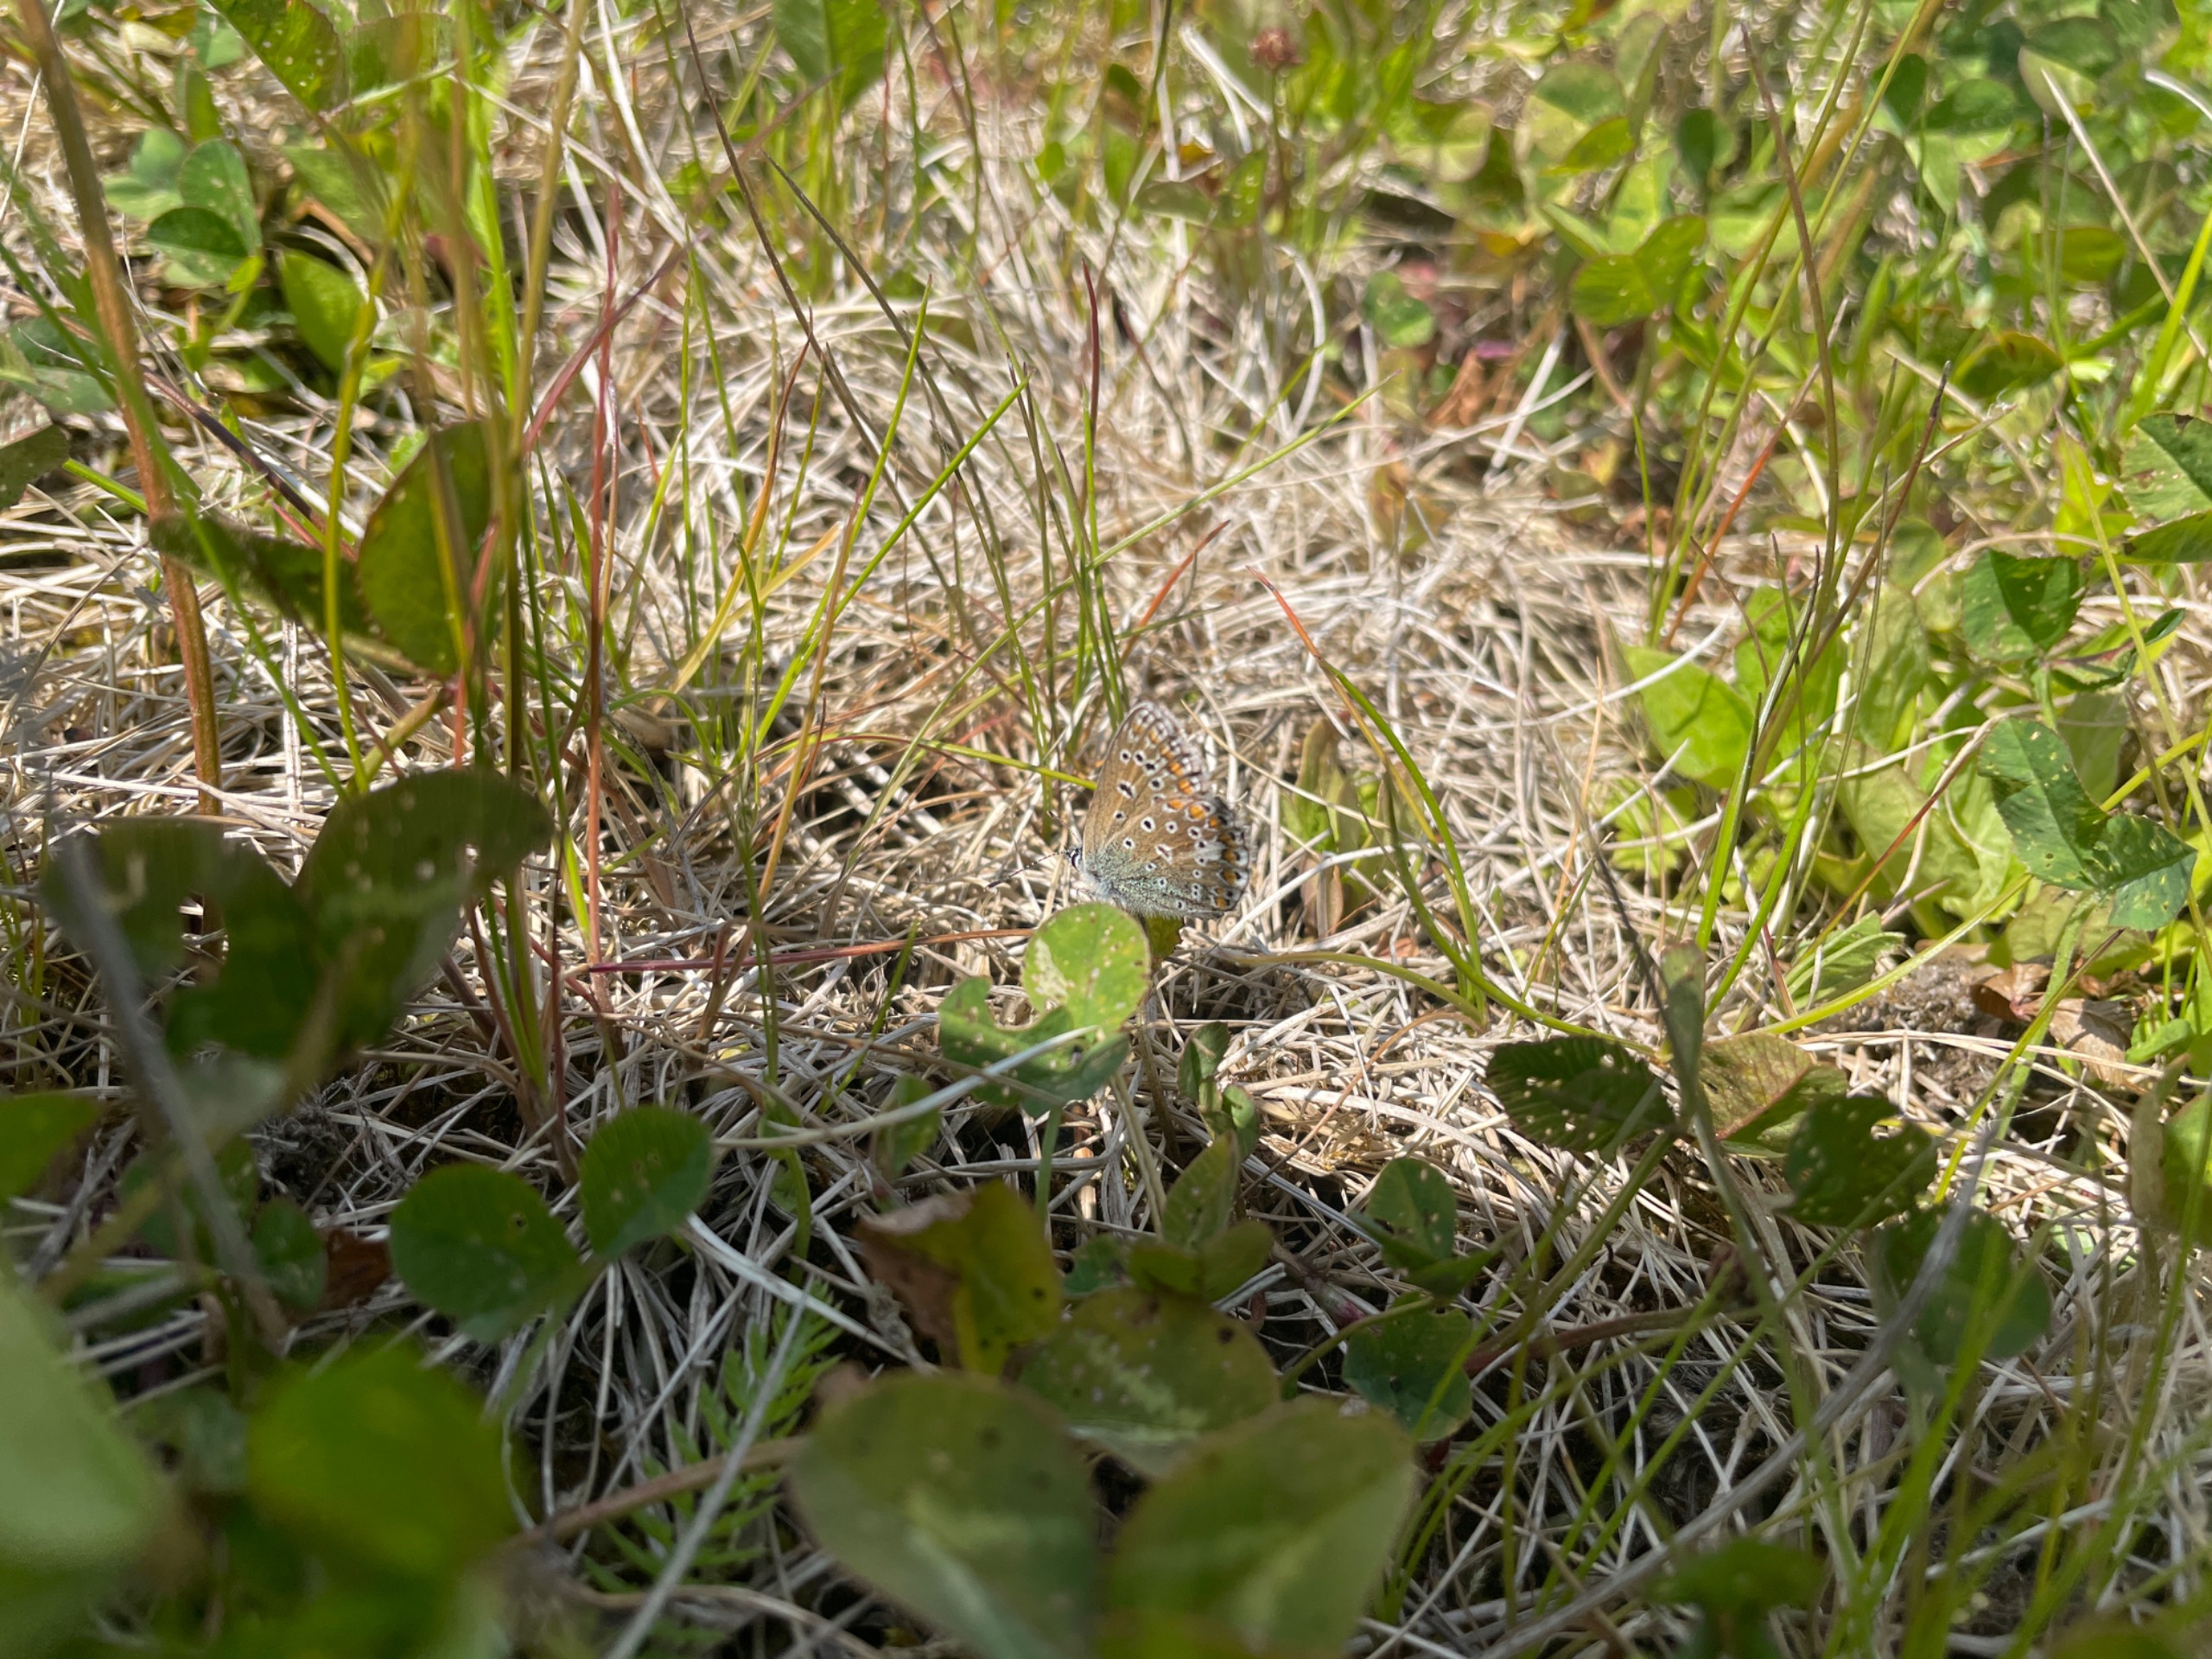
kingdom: Animalia
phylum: Arthropoda
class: Insecta
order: Lepidoptera
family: Lycaenidae
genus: Polyommatus
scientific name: Polyommatus icarus
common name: Almindelig blåfugl
